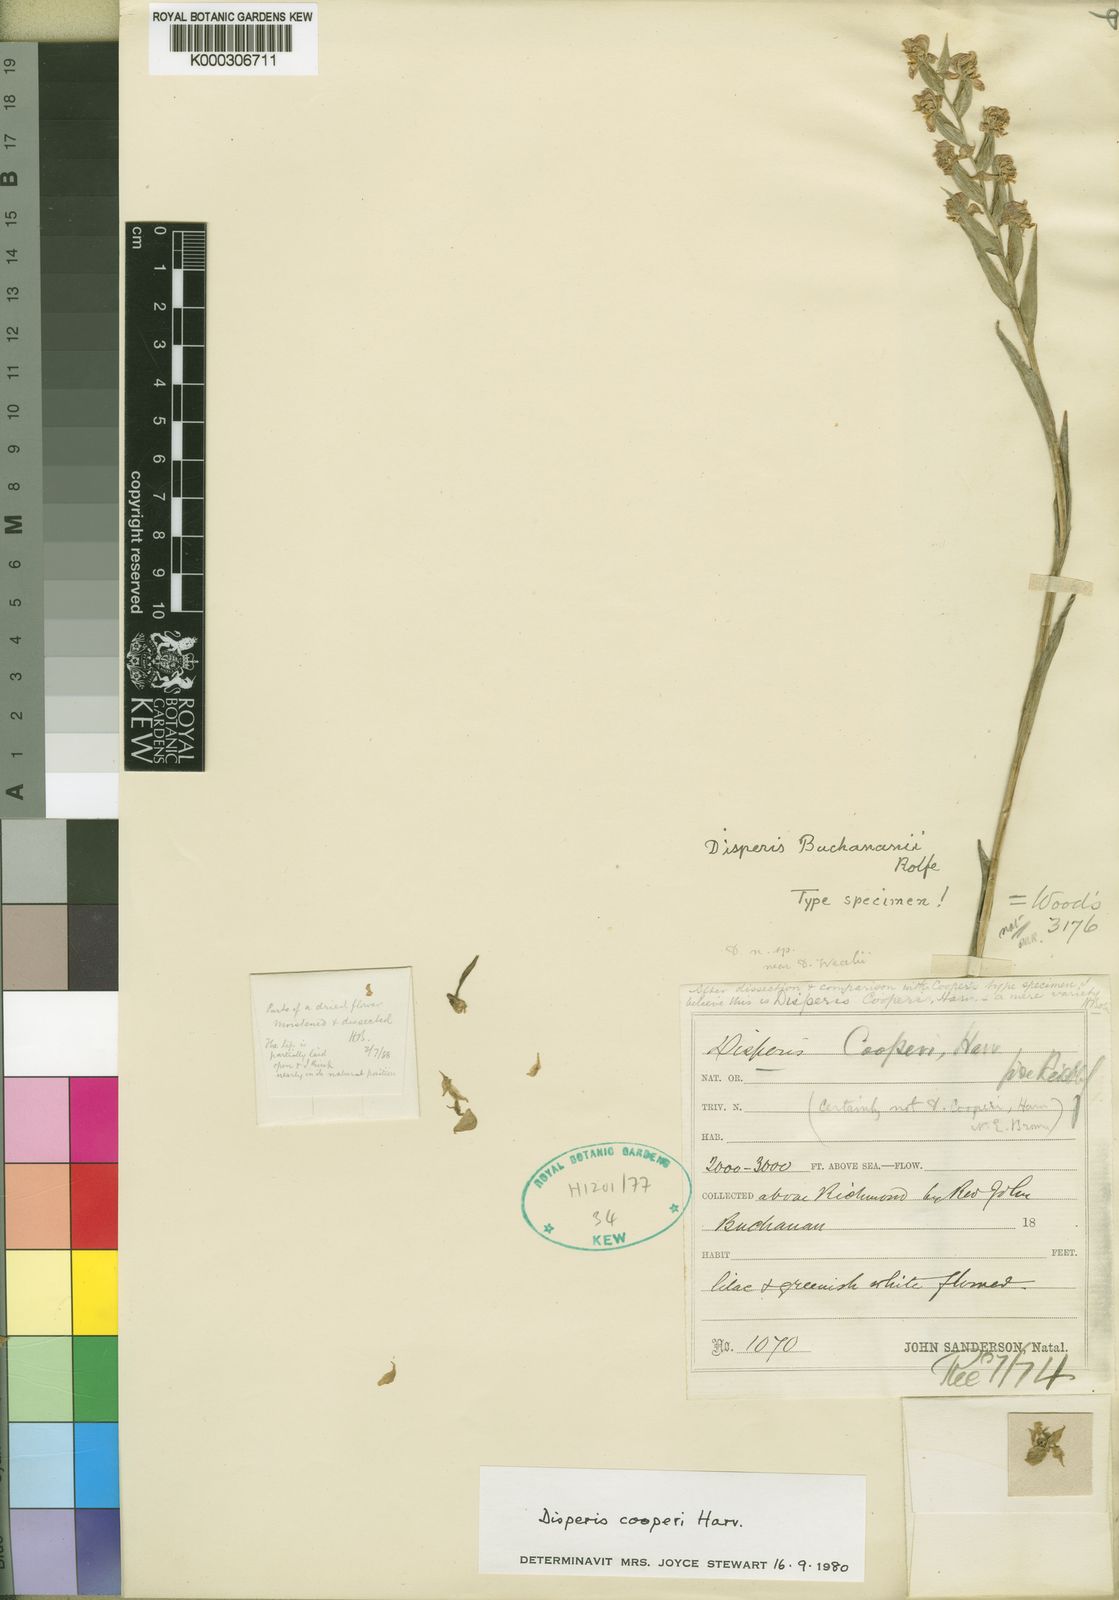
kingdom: Plantae
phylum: Tracheophyta
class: Liliopsida
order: Asparagales
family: Orchidaceae
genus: Disperis
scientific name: Disperis cooperi
